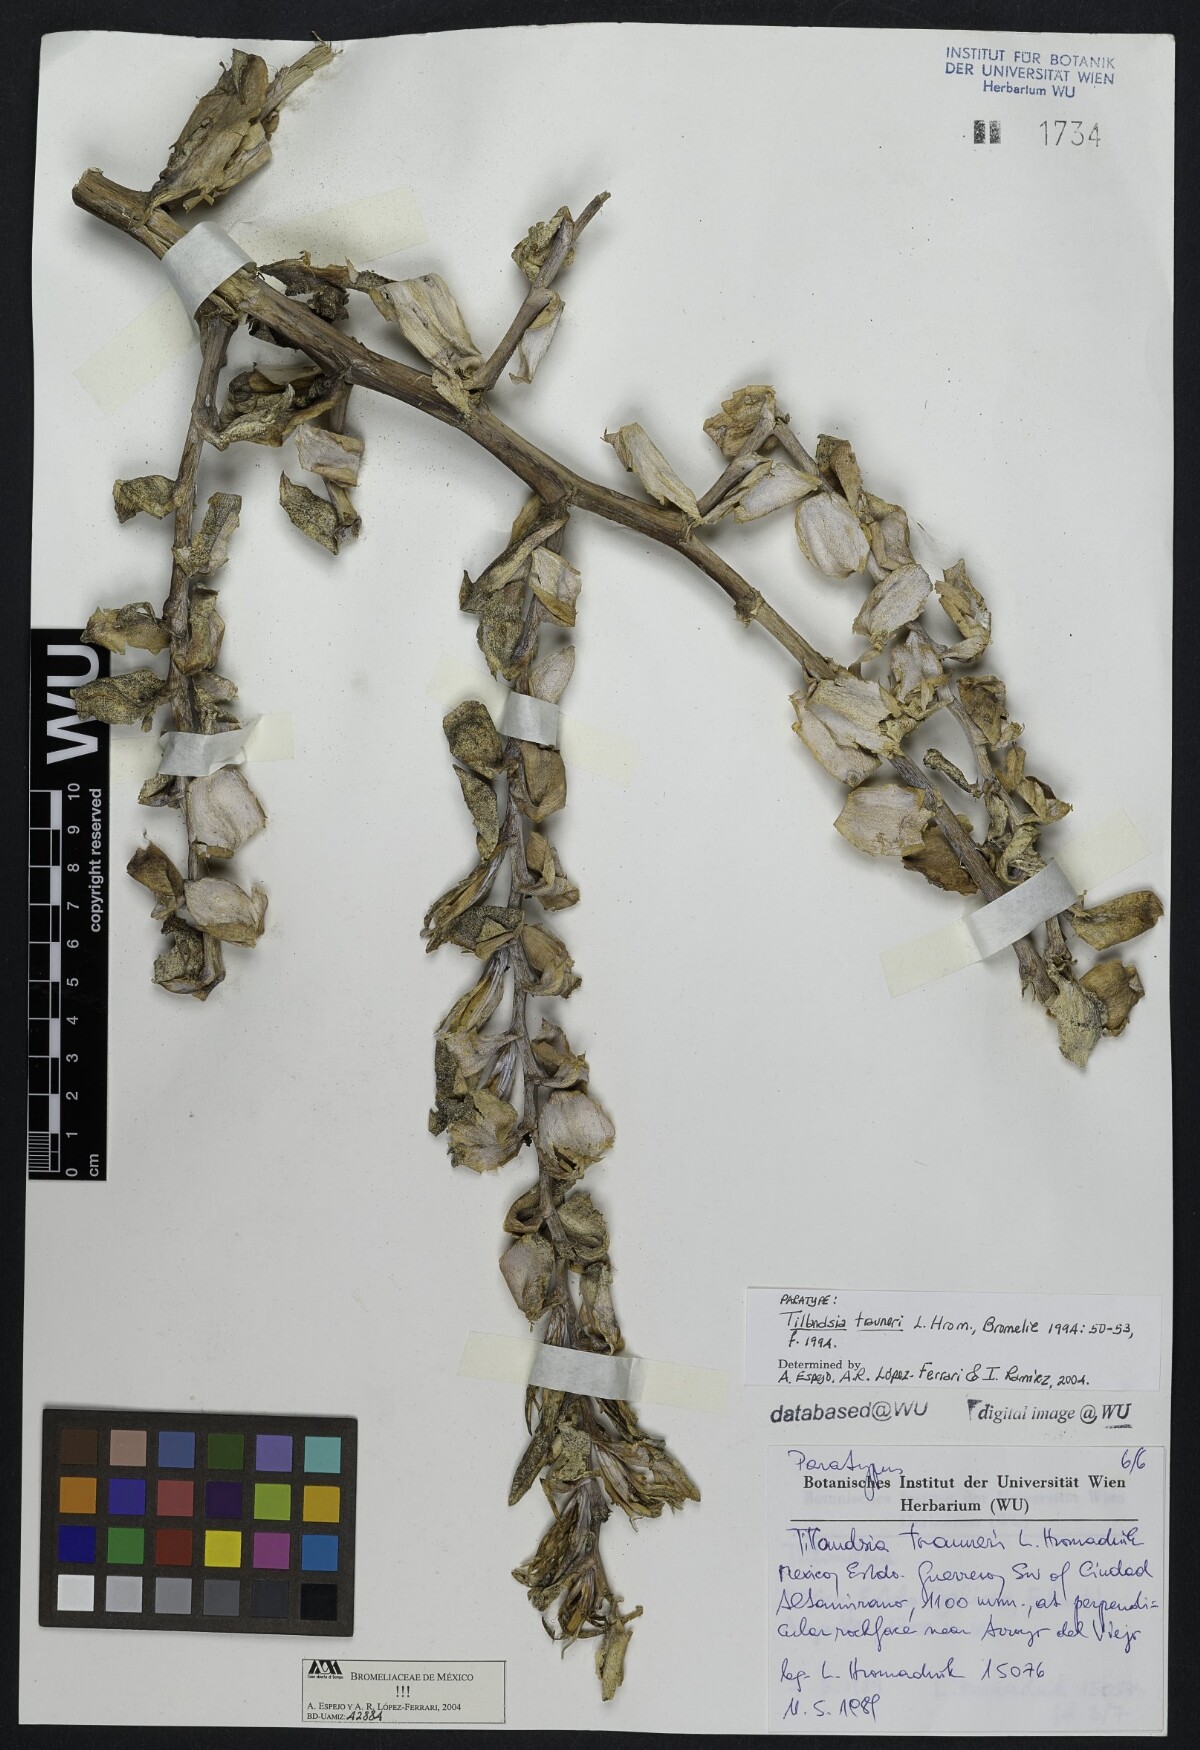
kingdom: Plantae
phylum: Tracheophyta
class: Liliopsida
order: Poales
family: Bromeliaceae
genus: Tillandsia
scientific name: Tillandsia trauneri
